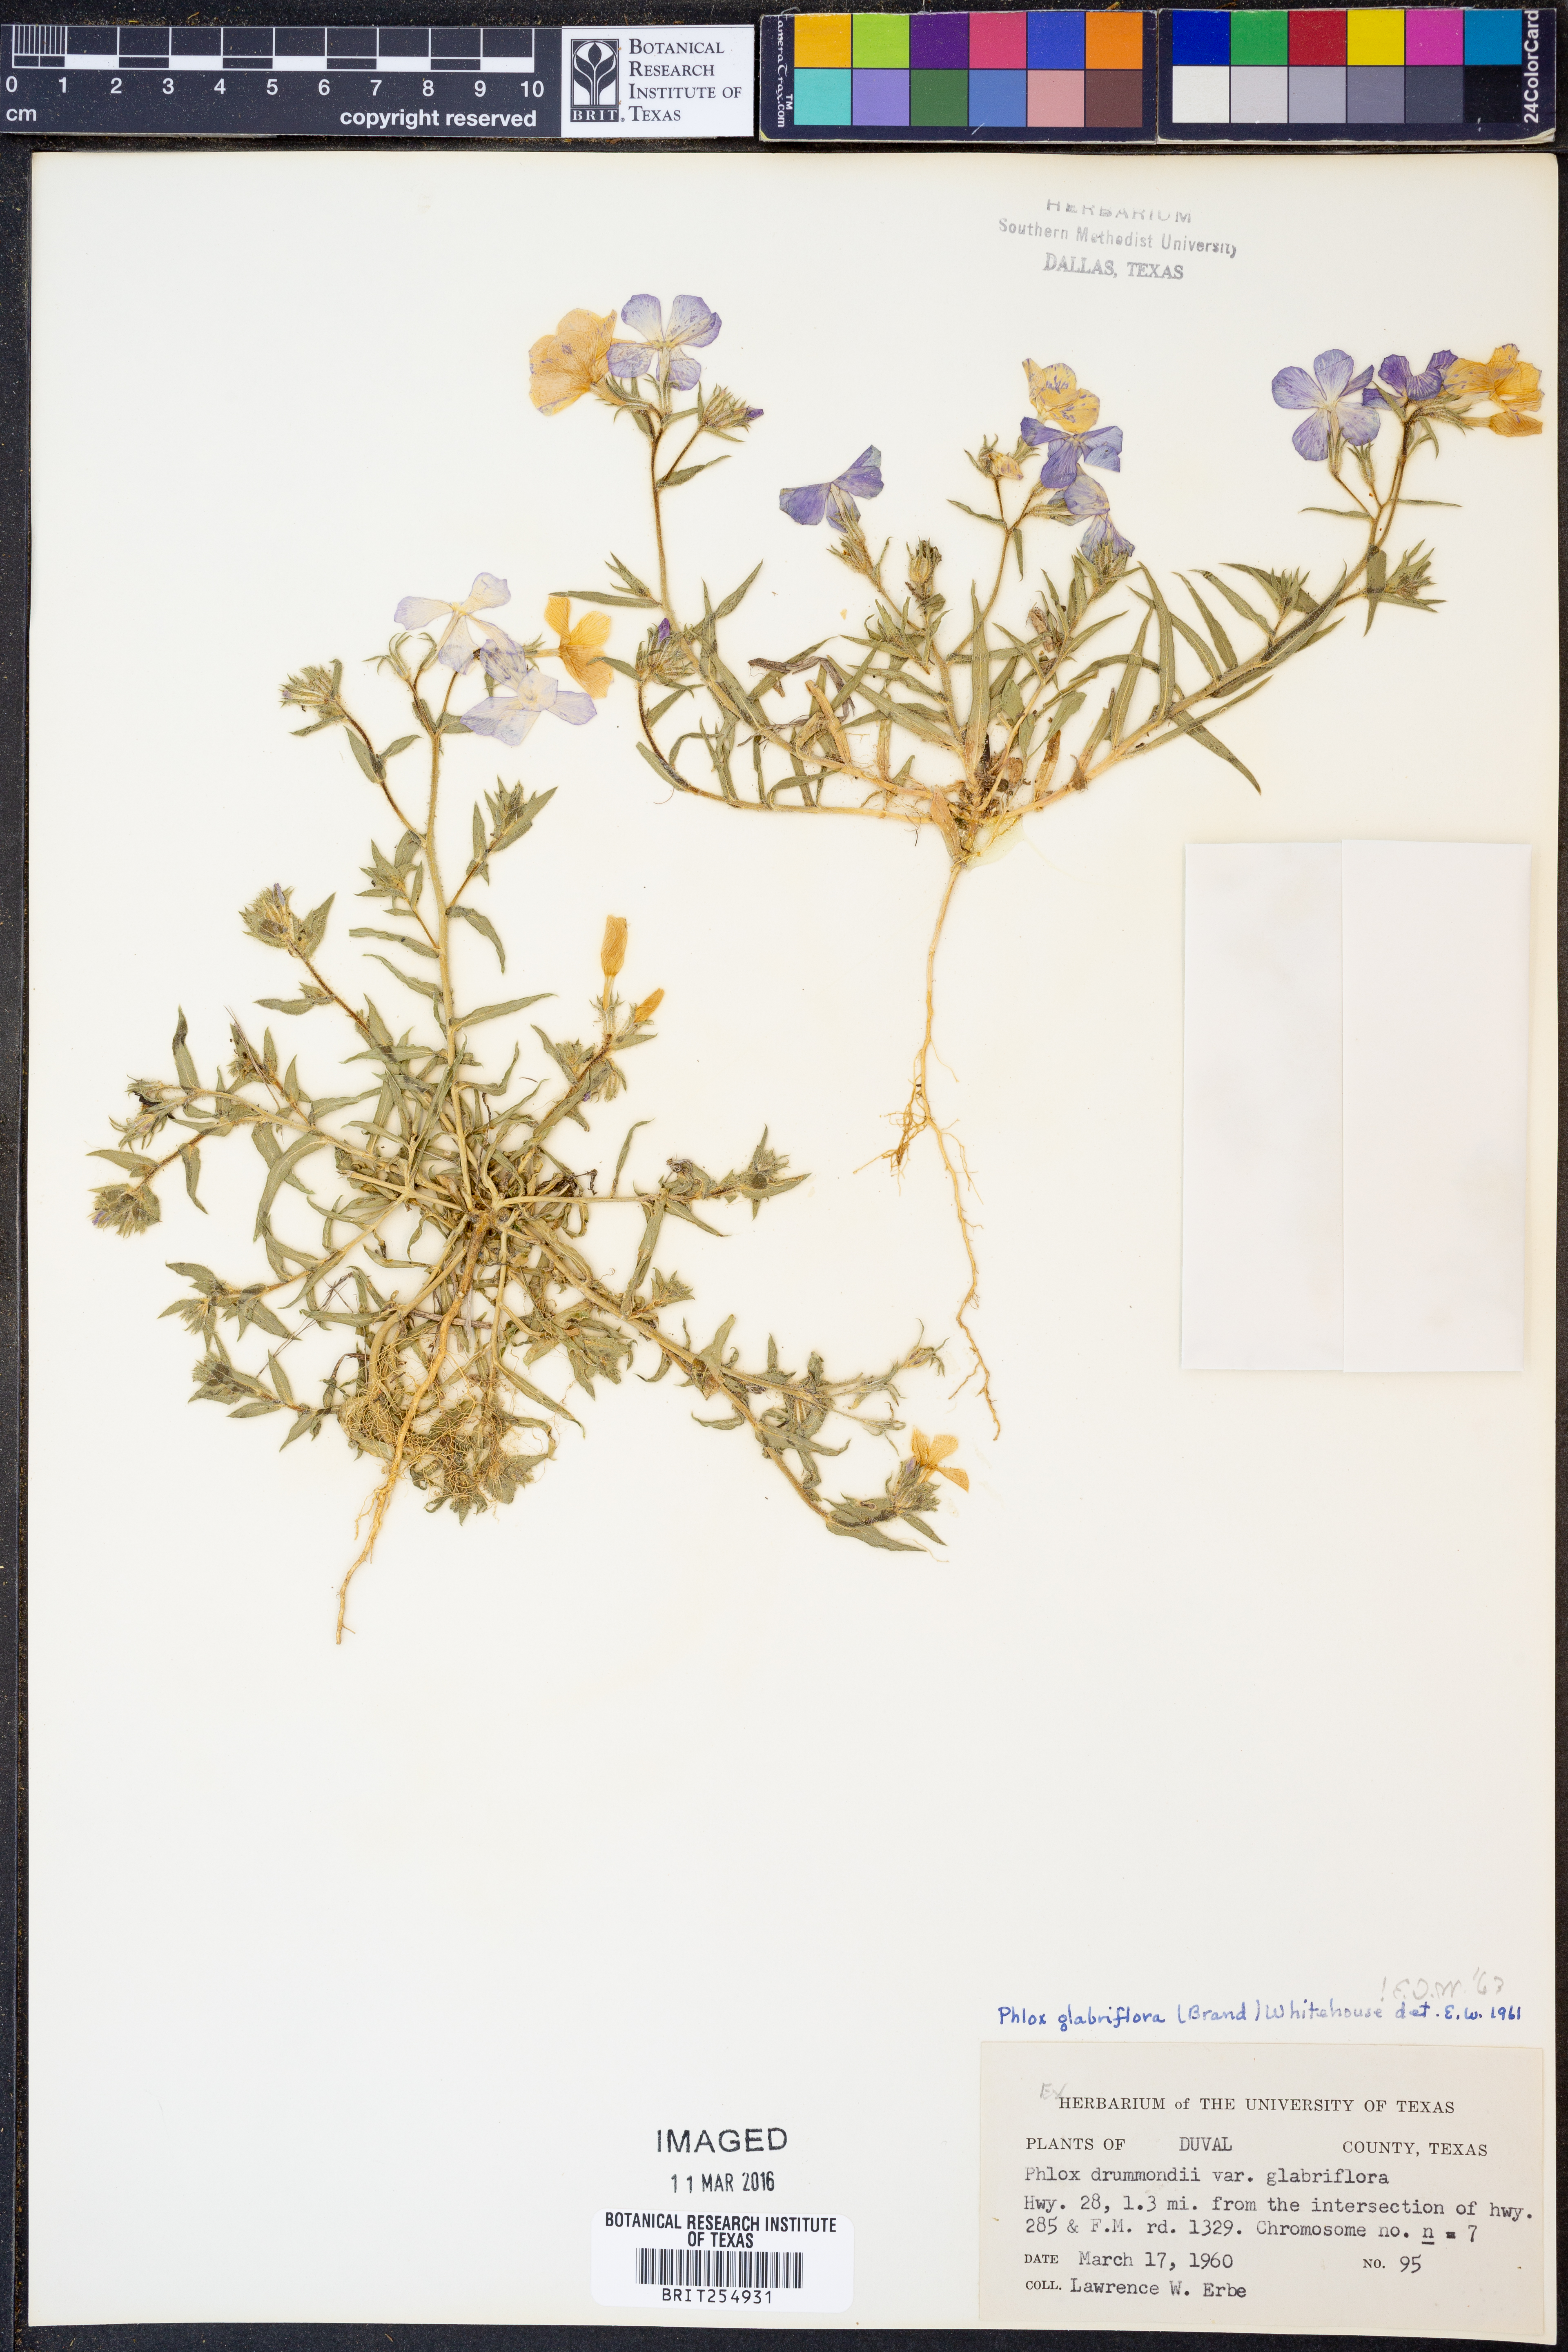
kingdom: Plantae
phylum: Tracheophyta
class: Magnoliopsida
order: Ericales
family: Polemoniaceae
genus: Phlox
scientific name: Phlox glabriflora
